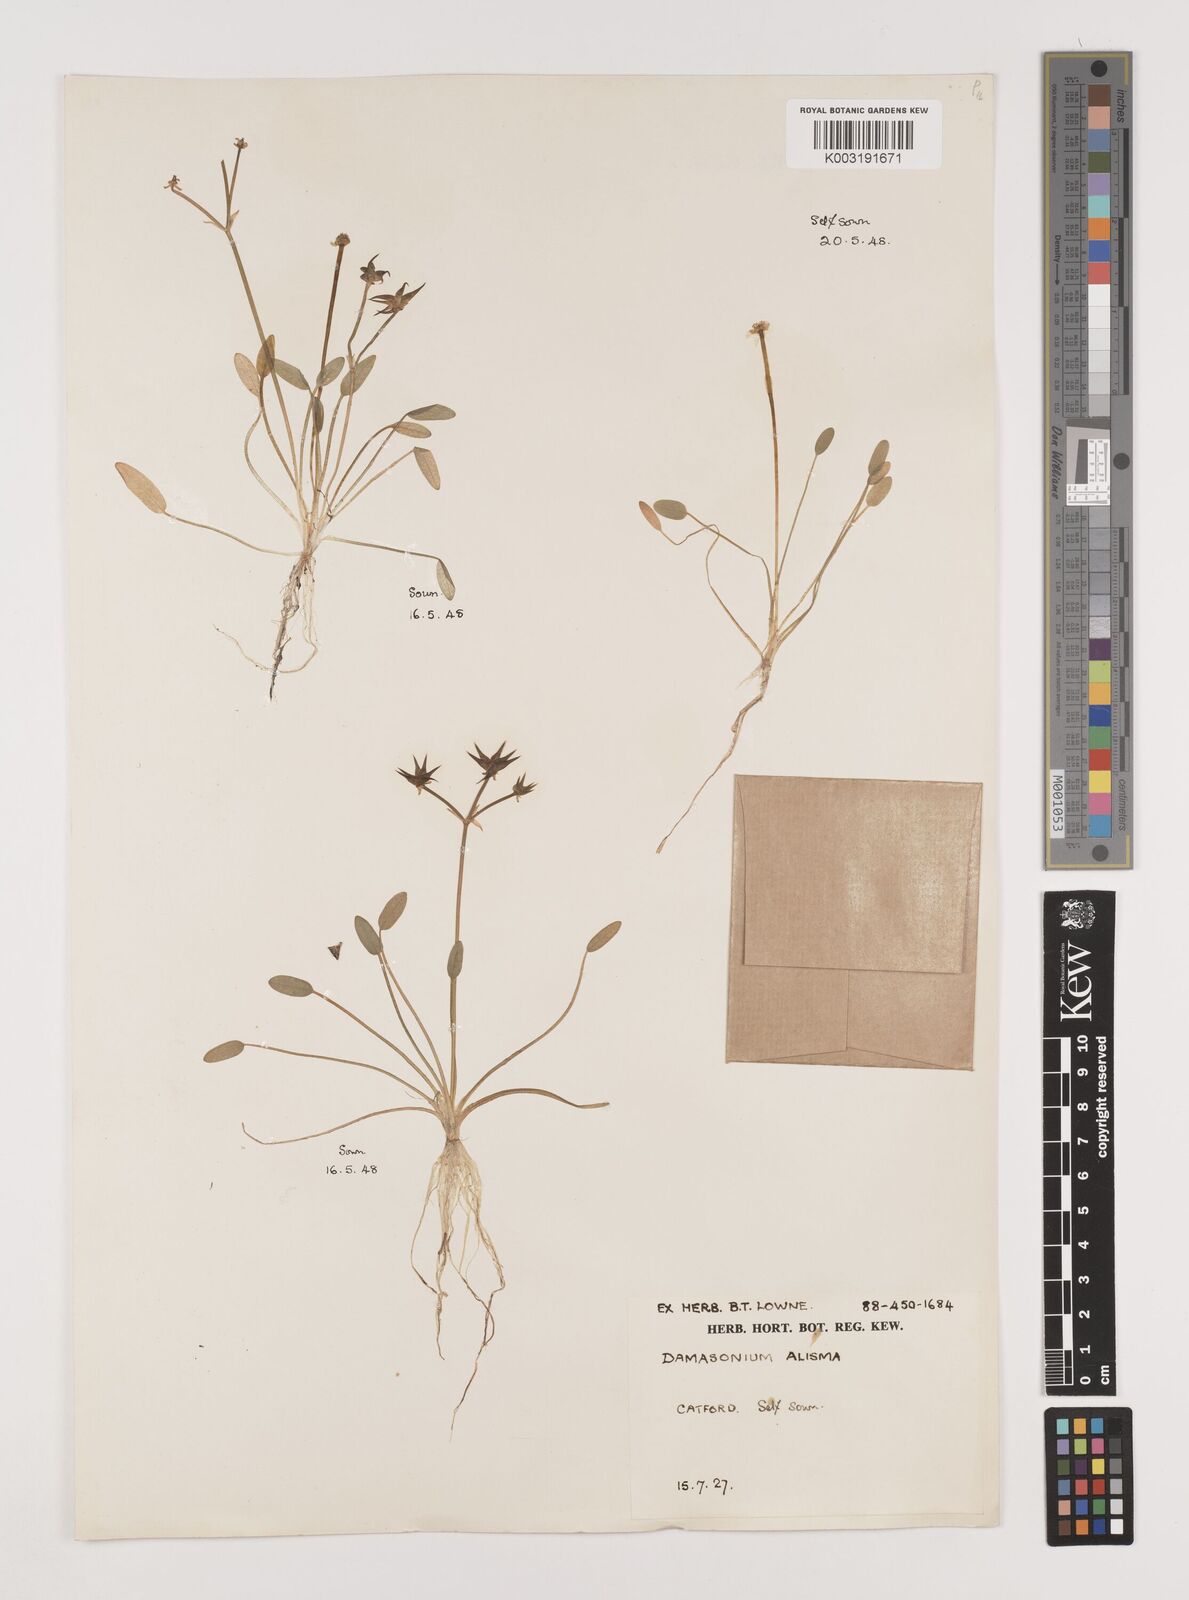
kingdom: Plantae
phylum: Tracheophyta
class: Liliopsida
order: Alismatales
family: Alismataceae
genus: Damasonium
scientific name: Damasonium alisma
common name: Starfruit
